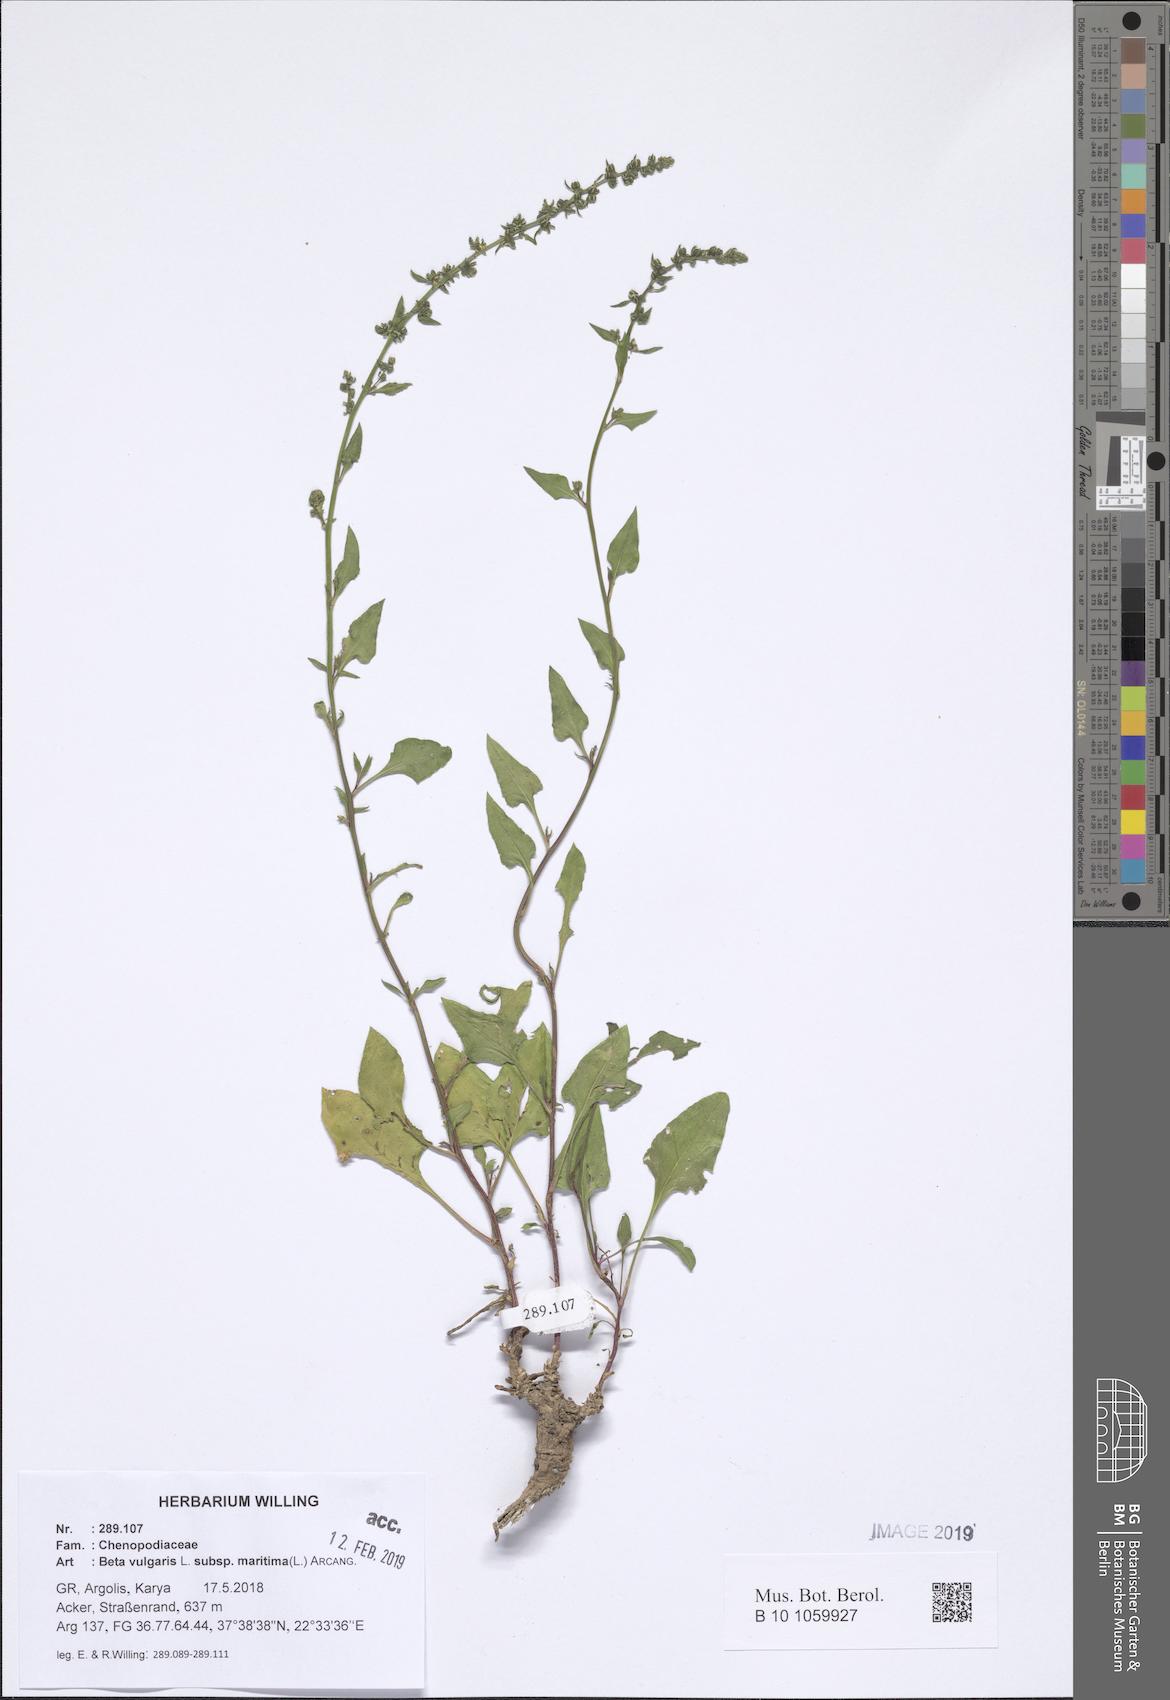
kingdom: Plantae
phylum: Tracheophyta
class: Magnoliopsida
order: Caryophyllales
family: Amaranthaceae
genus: Beta
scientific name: Beta maritima
